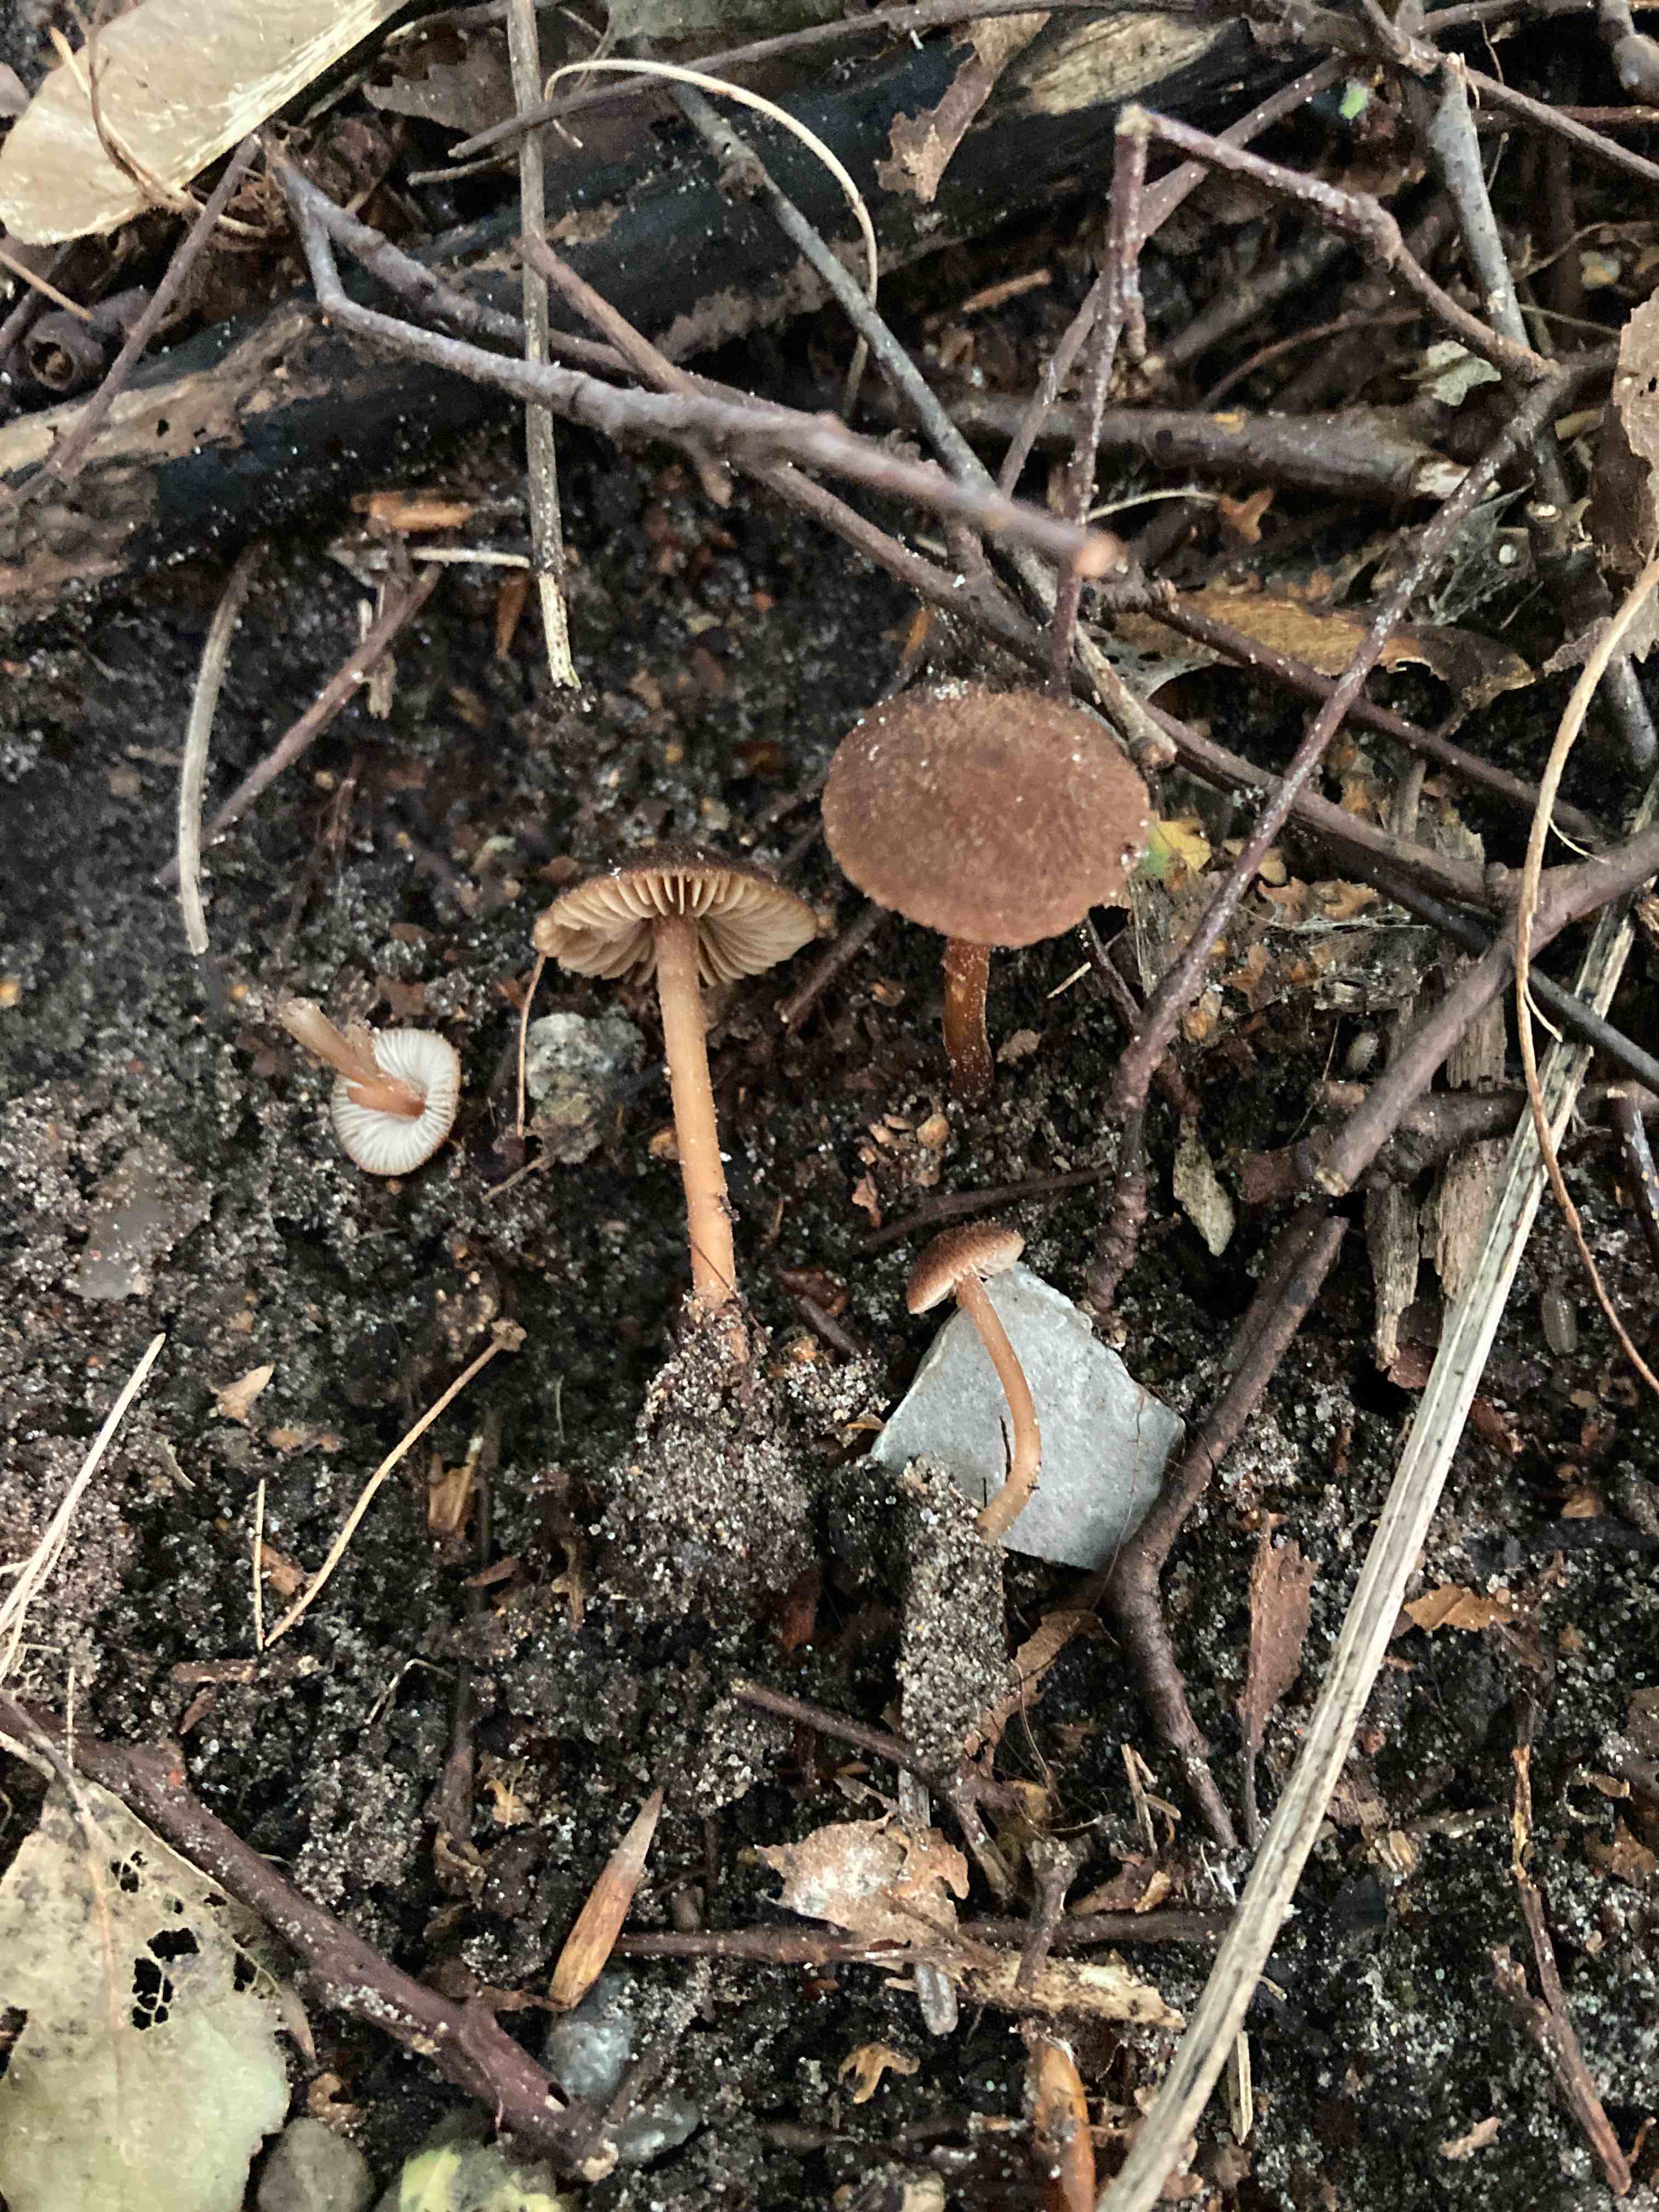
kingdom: Fungi
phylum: Basidiomycota
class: Agaricomycetes
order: Agaricales
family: Inocybaceae
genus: Inocybe
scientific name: Inocybe calospora
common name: pigsporet trævlhat
